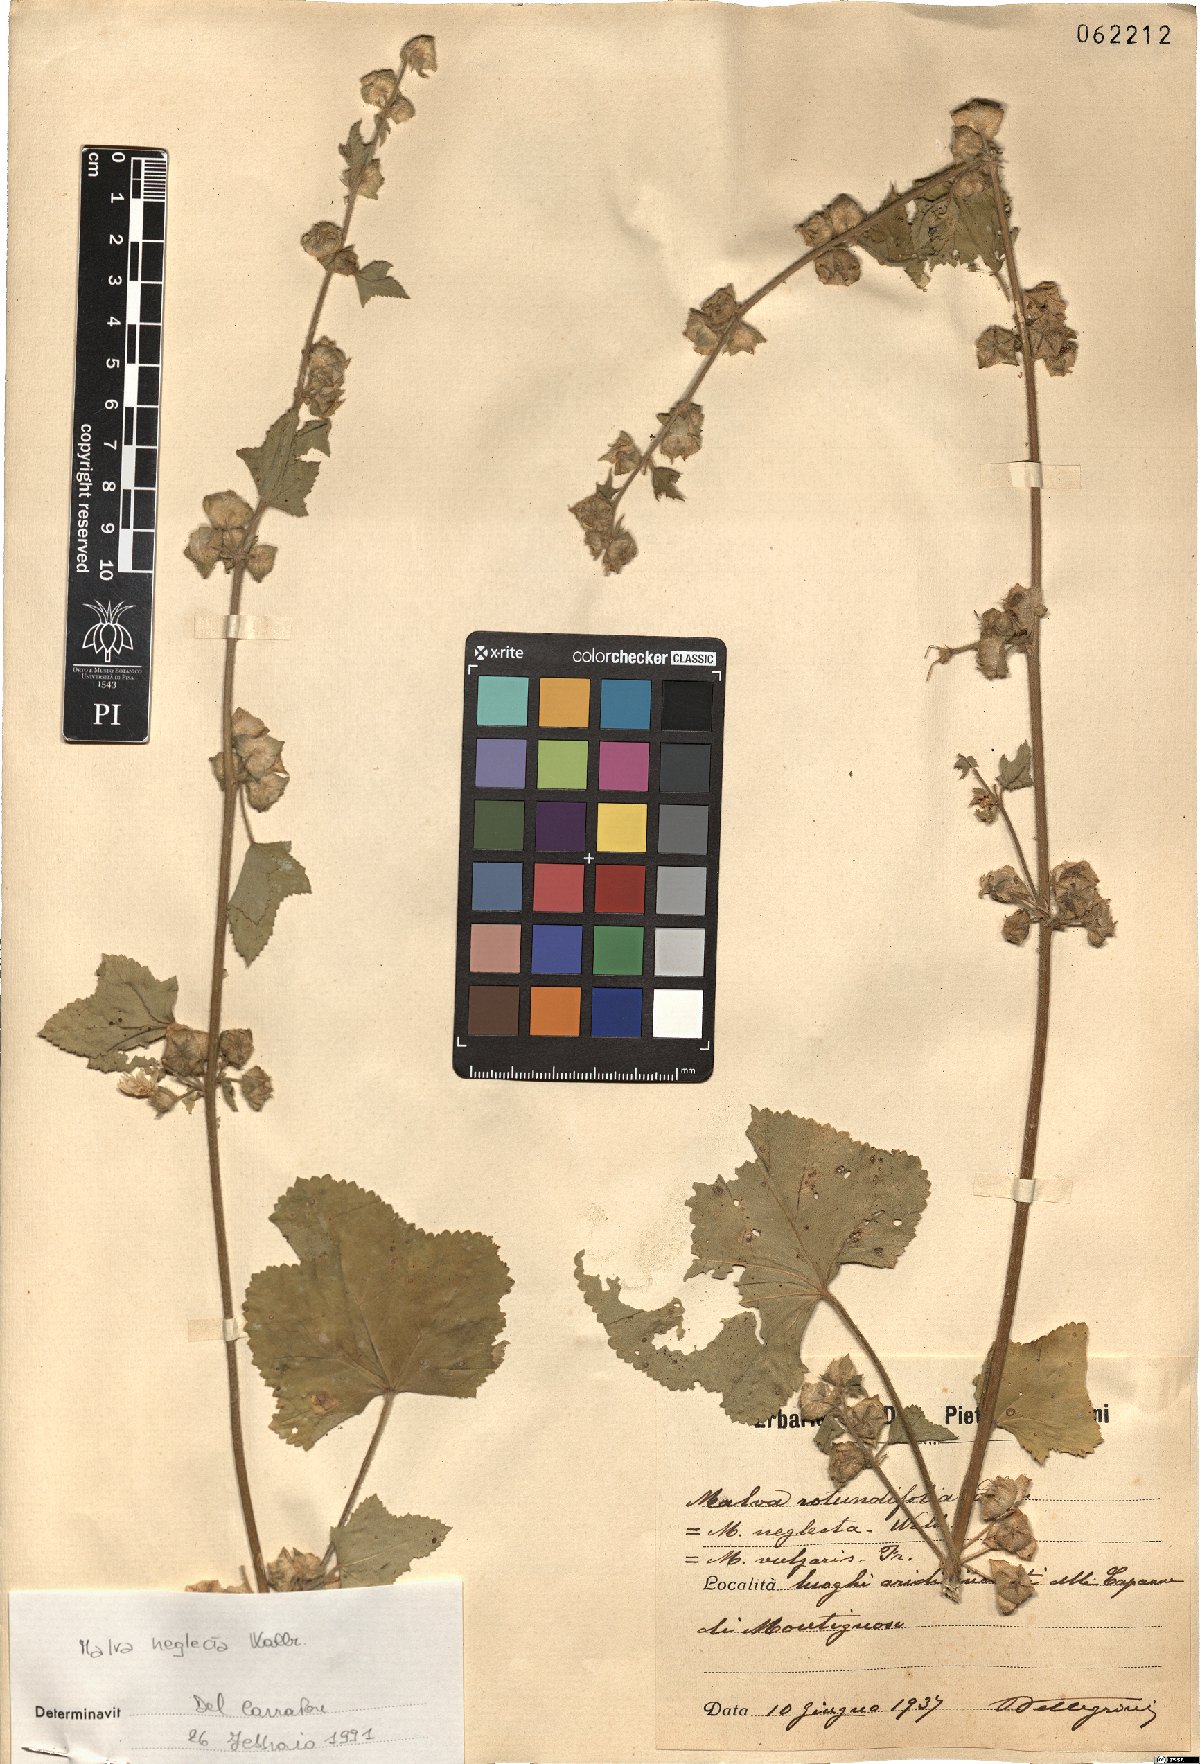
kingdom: Plantae
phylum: Tracheophyta
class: Magnoliopsida
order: Malvales
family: Malvaceae
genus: Malva
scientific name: Malva neglecta
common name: Common mallow
